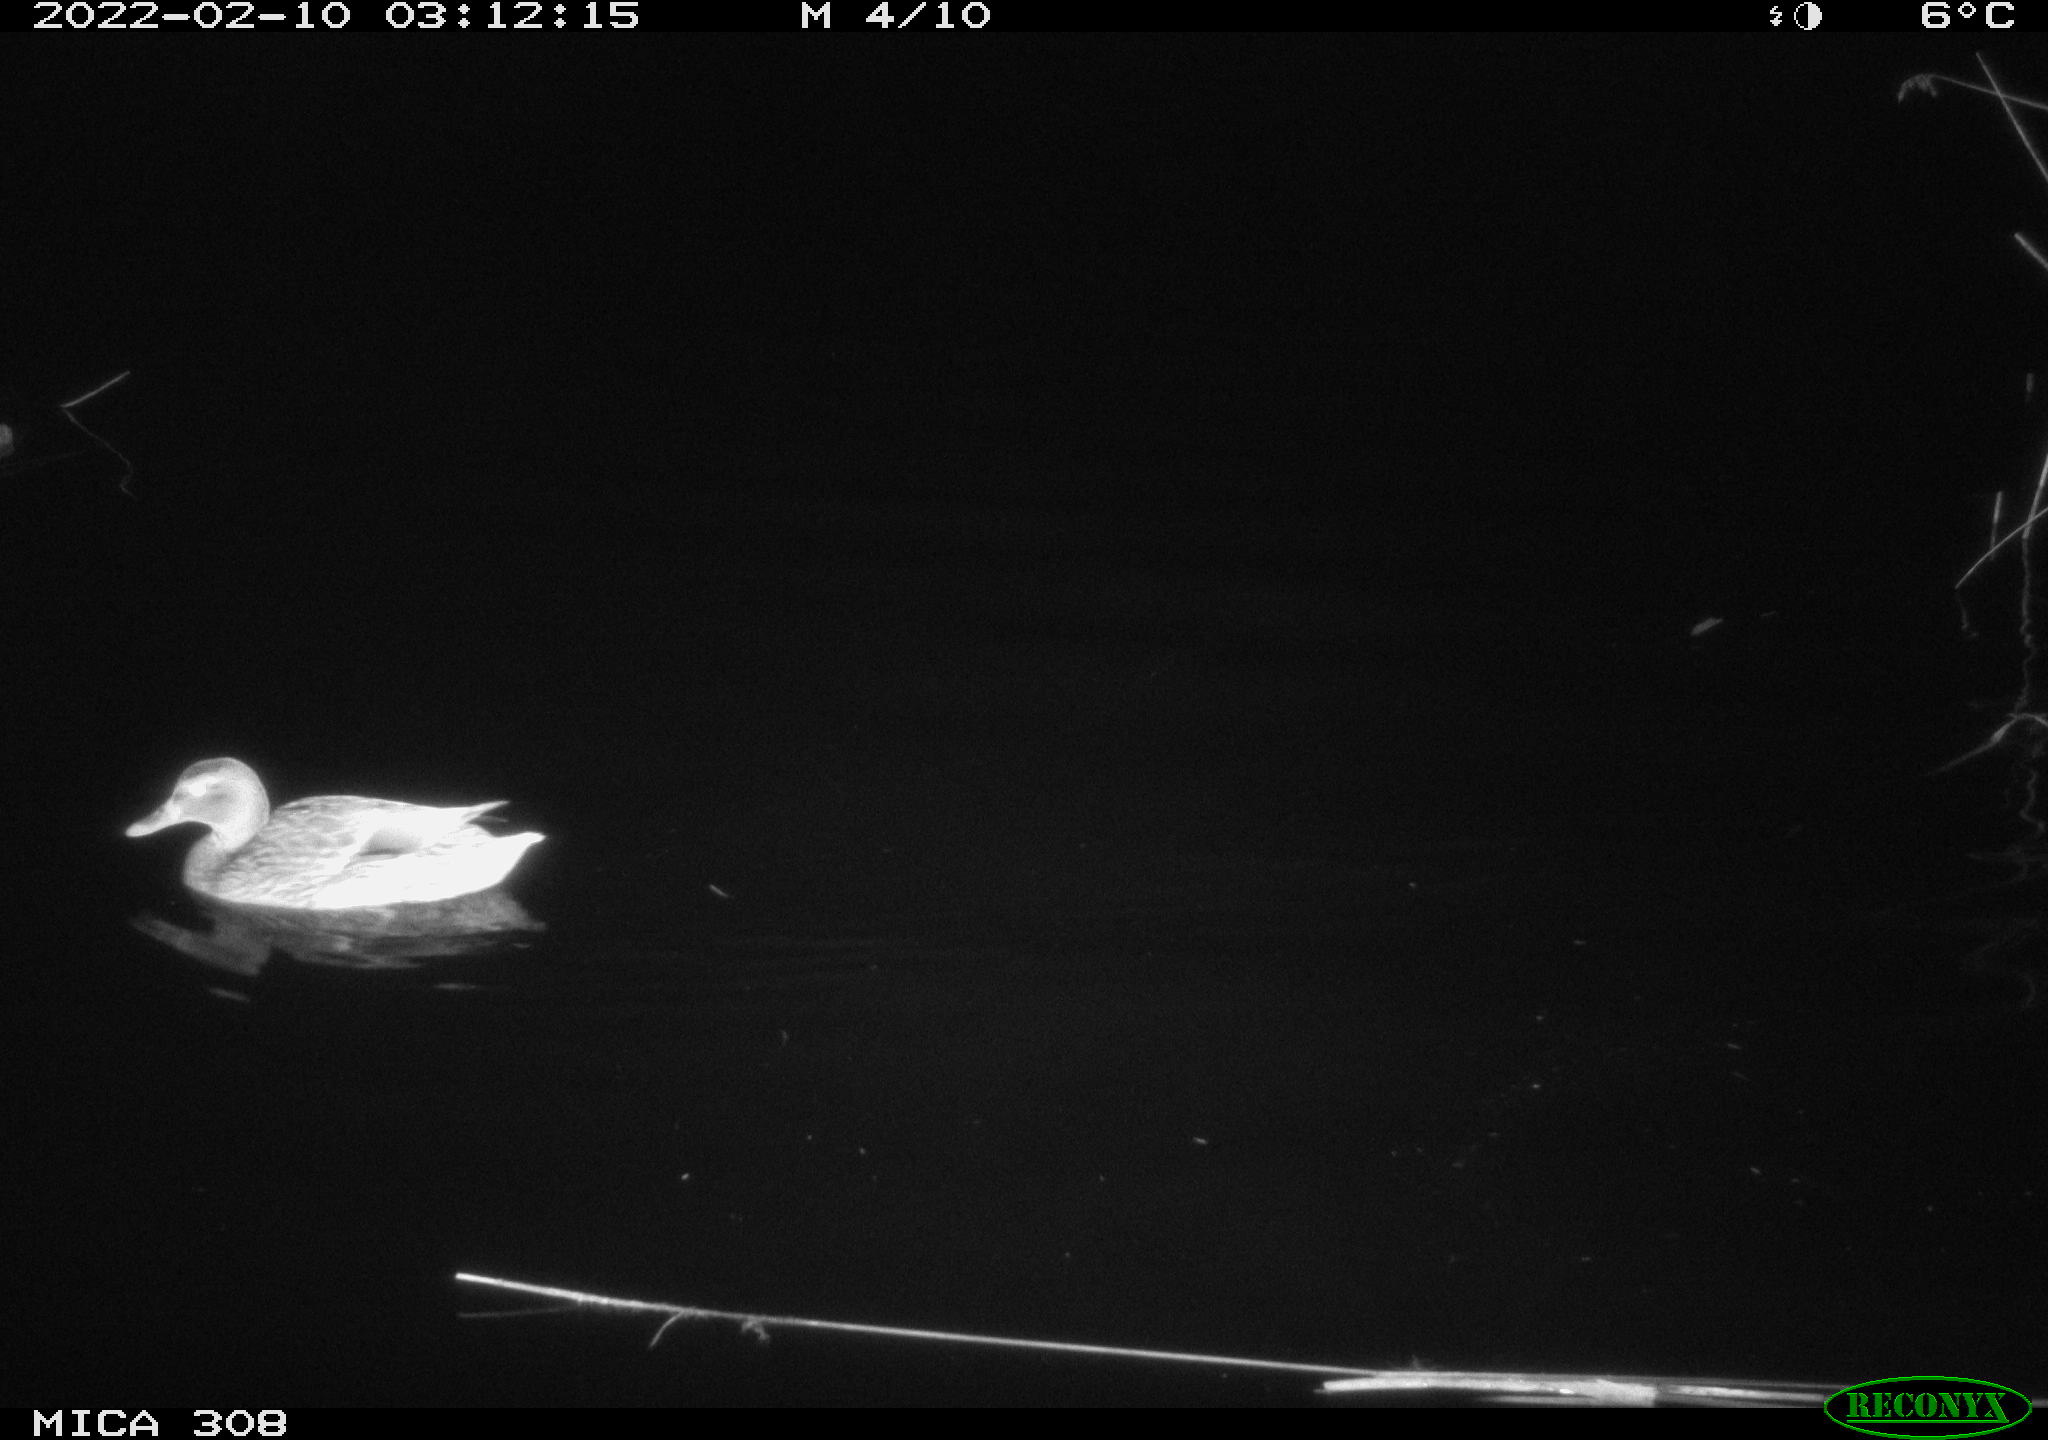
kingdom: Animalia
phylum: Chordata
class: Aves
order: Anseriformes
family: Anatidae
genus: Anas
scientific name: Anas platyrhynchos
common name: Mallard
